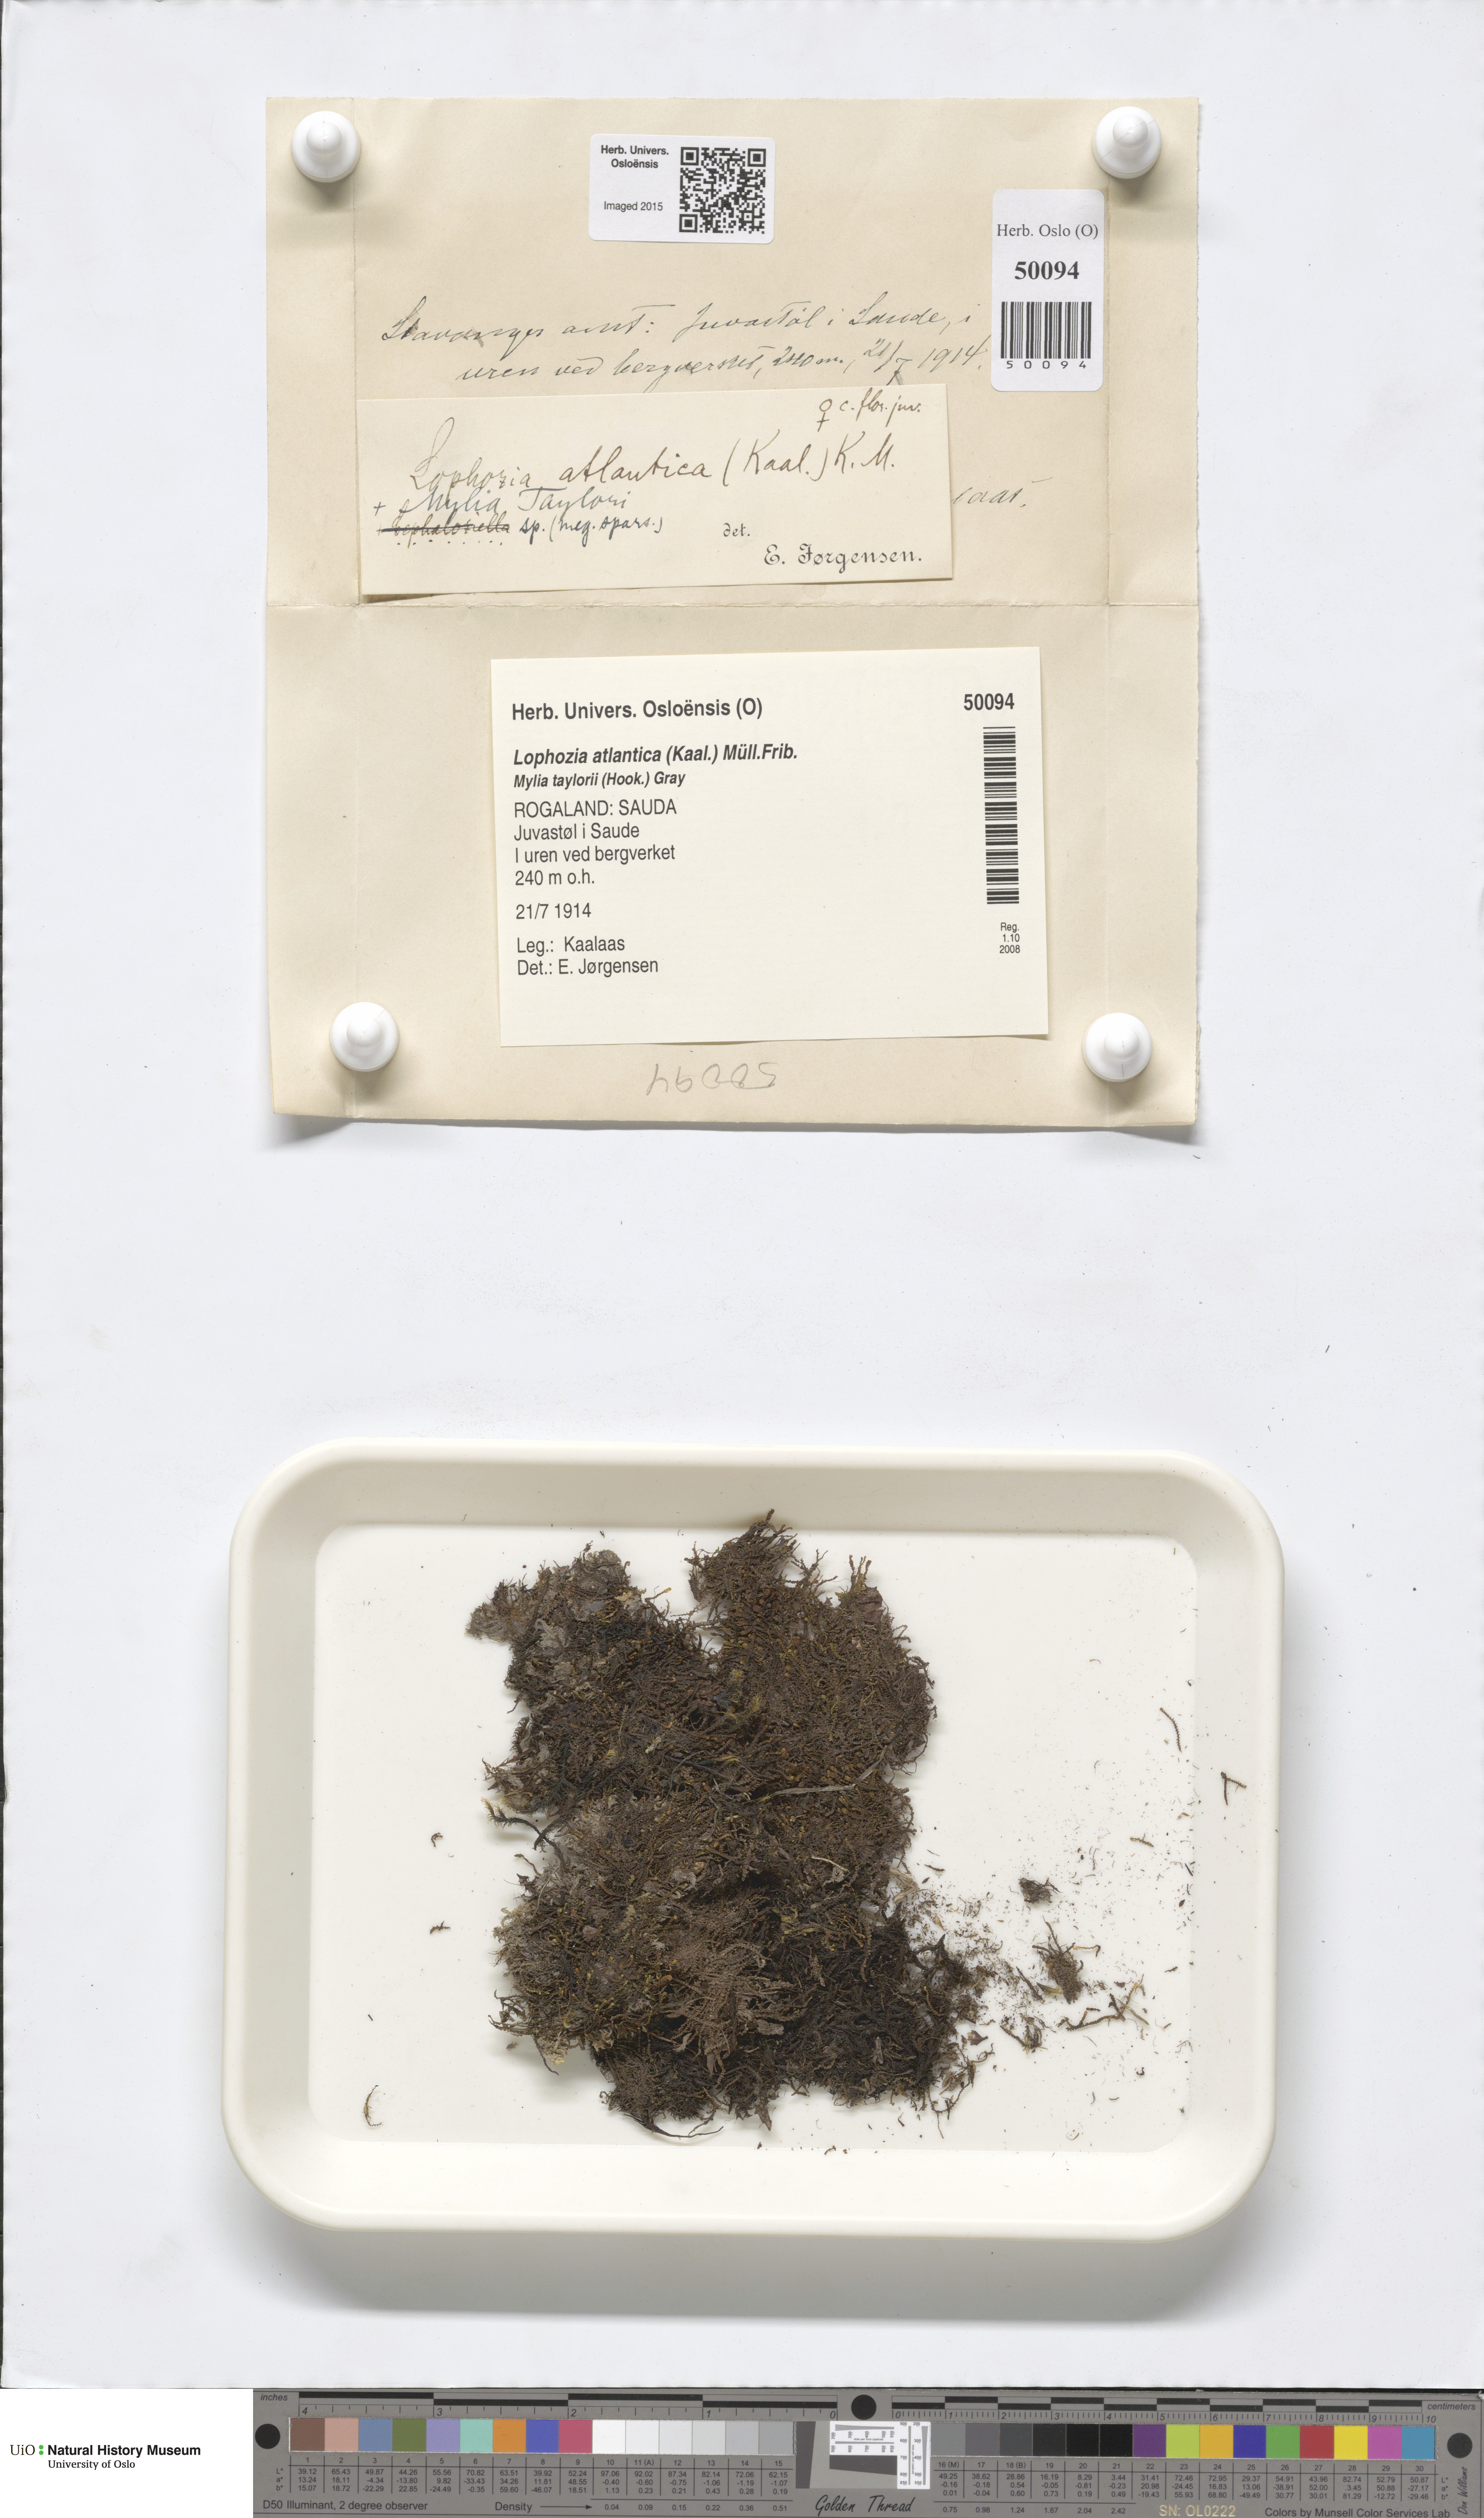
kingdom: Plantae
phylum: Marchantiophyta
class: Jungermanniopsida
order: Jungermanniales
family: Anastrophyllaceae
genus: Orthocaulis
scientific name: Orthocaulis atlanticus
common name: Atlantic pawwort
